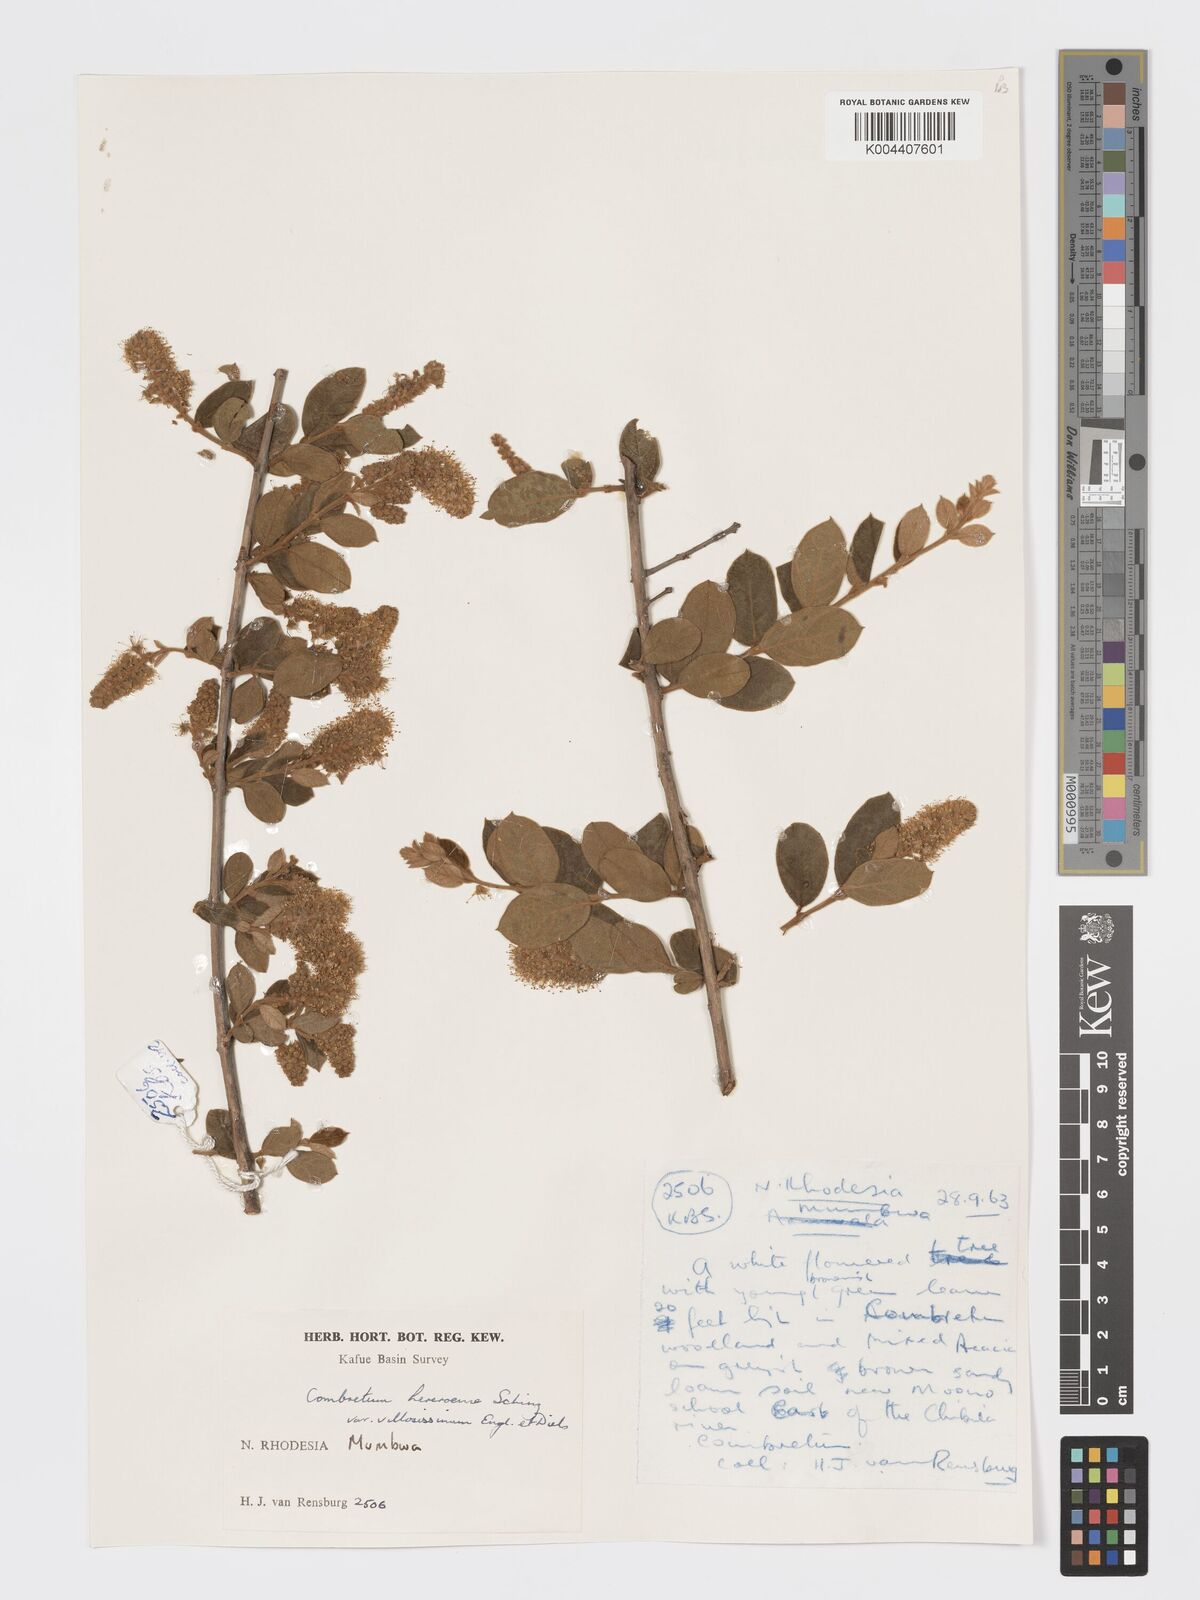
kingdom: Plantae
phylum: Tracheophyta
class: Magnoliopsida
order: Myrtales
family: Combretaceae
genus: Combretum
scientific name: Combretum hereroense
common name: Russet bushwillow
